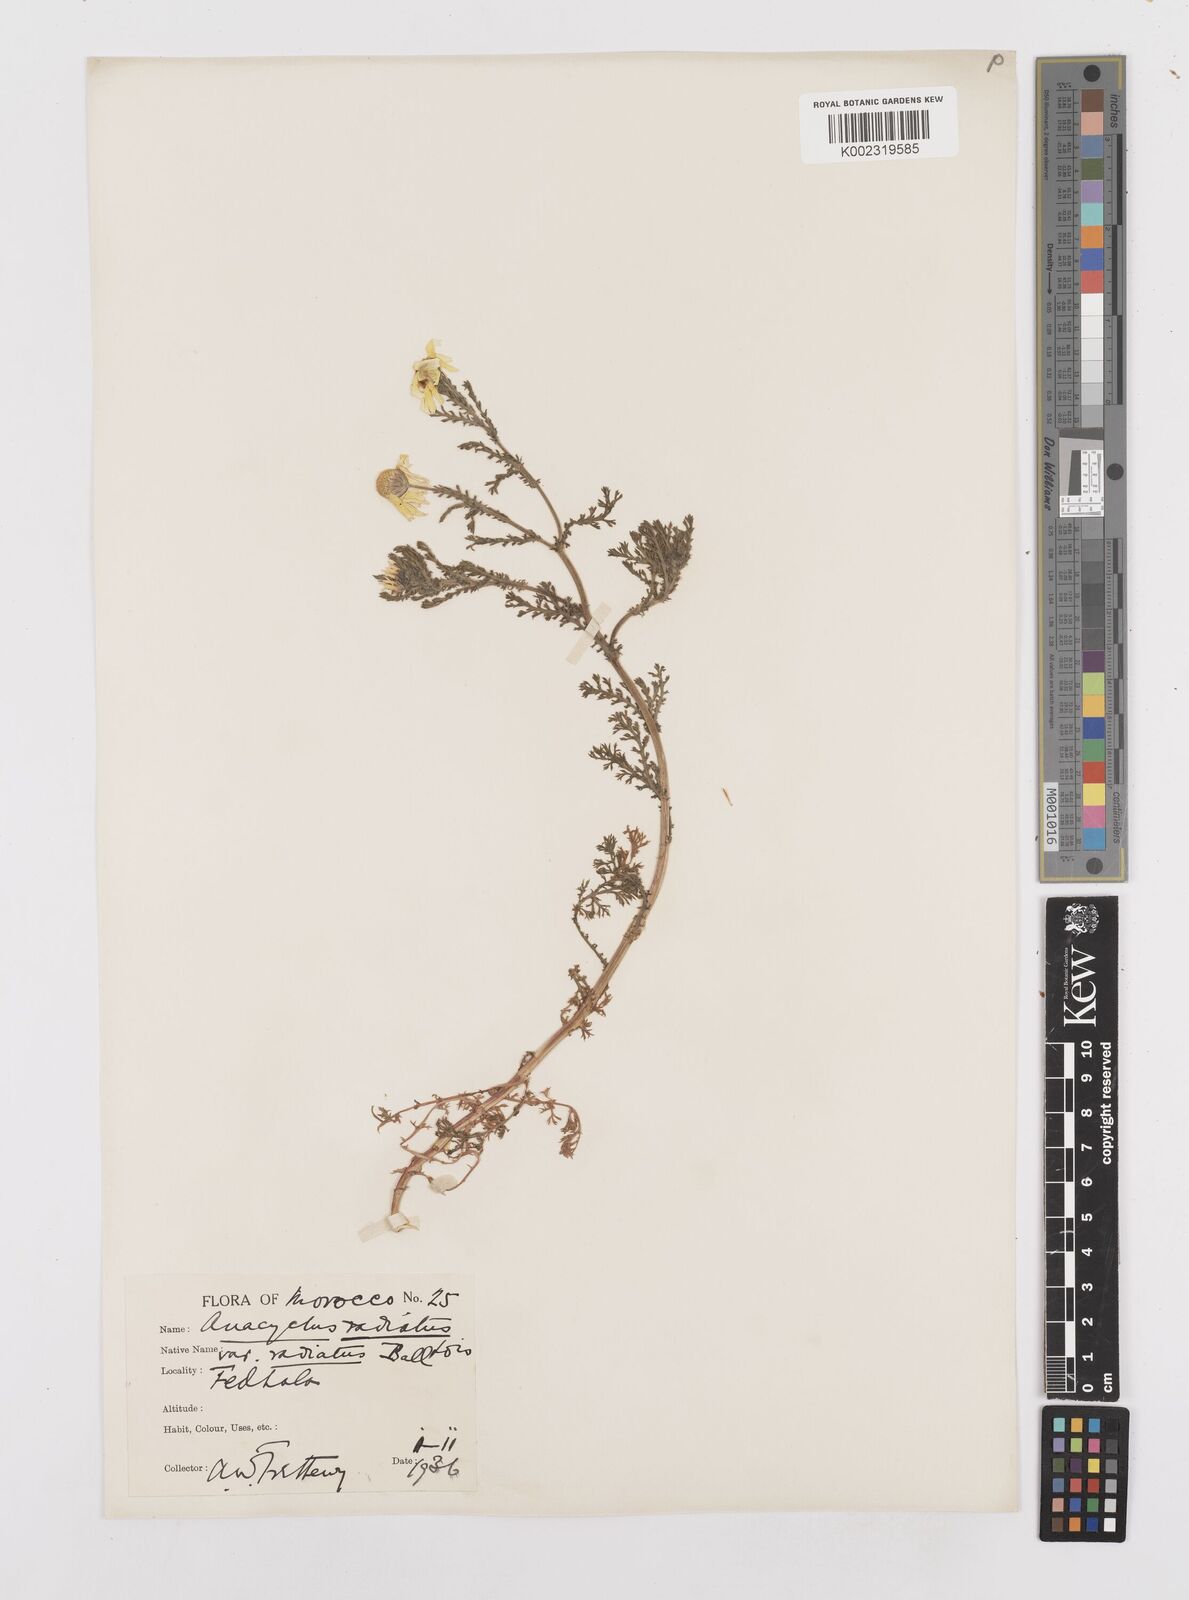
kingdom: Plantae
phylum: Tracheophyta
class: Magnoliopsida
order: Asterales
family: Asteraceae
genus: Anacyclus
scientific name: Anacyclus radiatus
